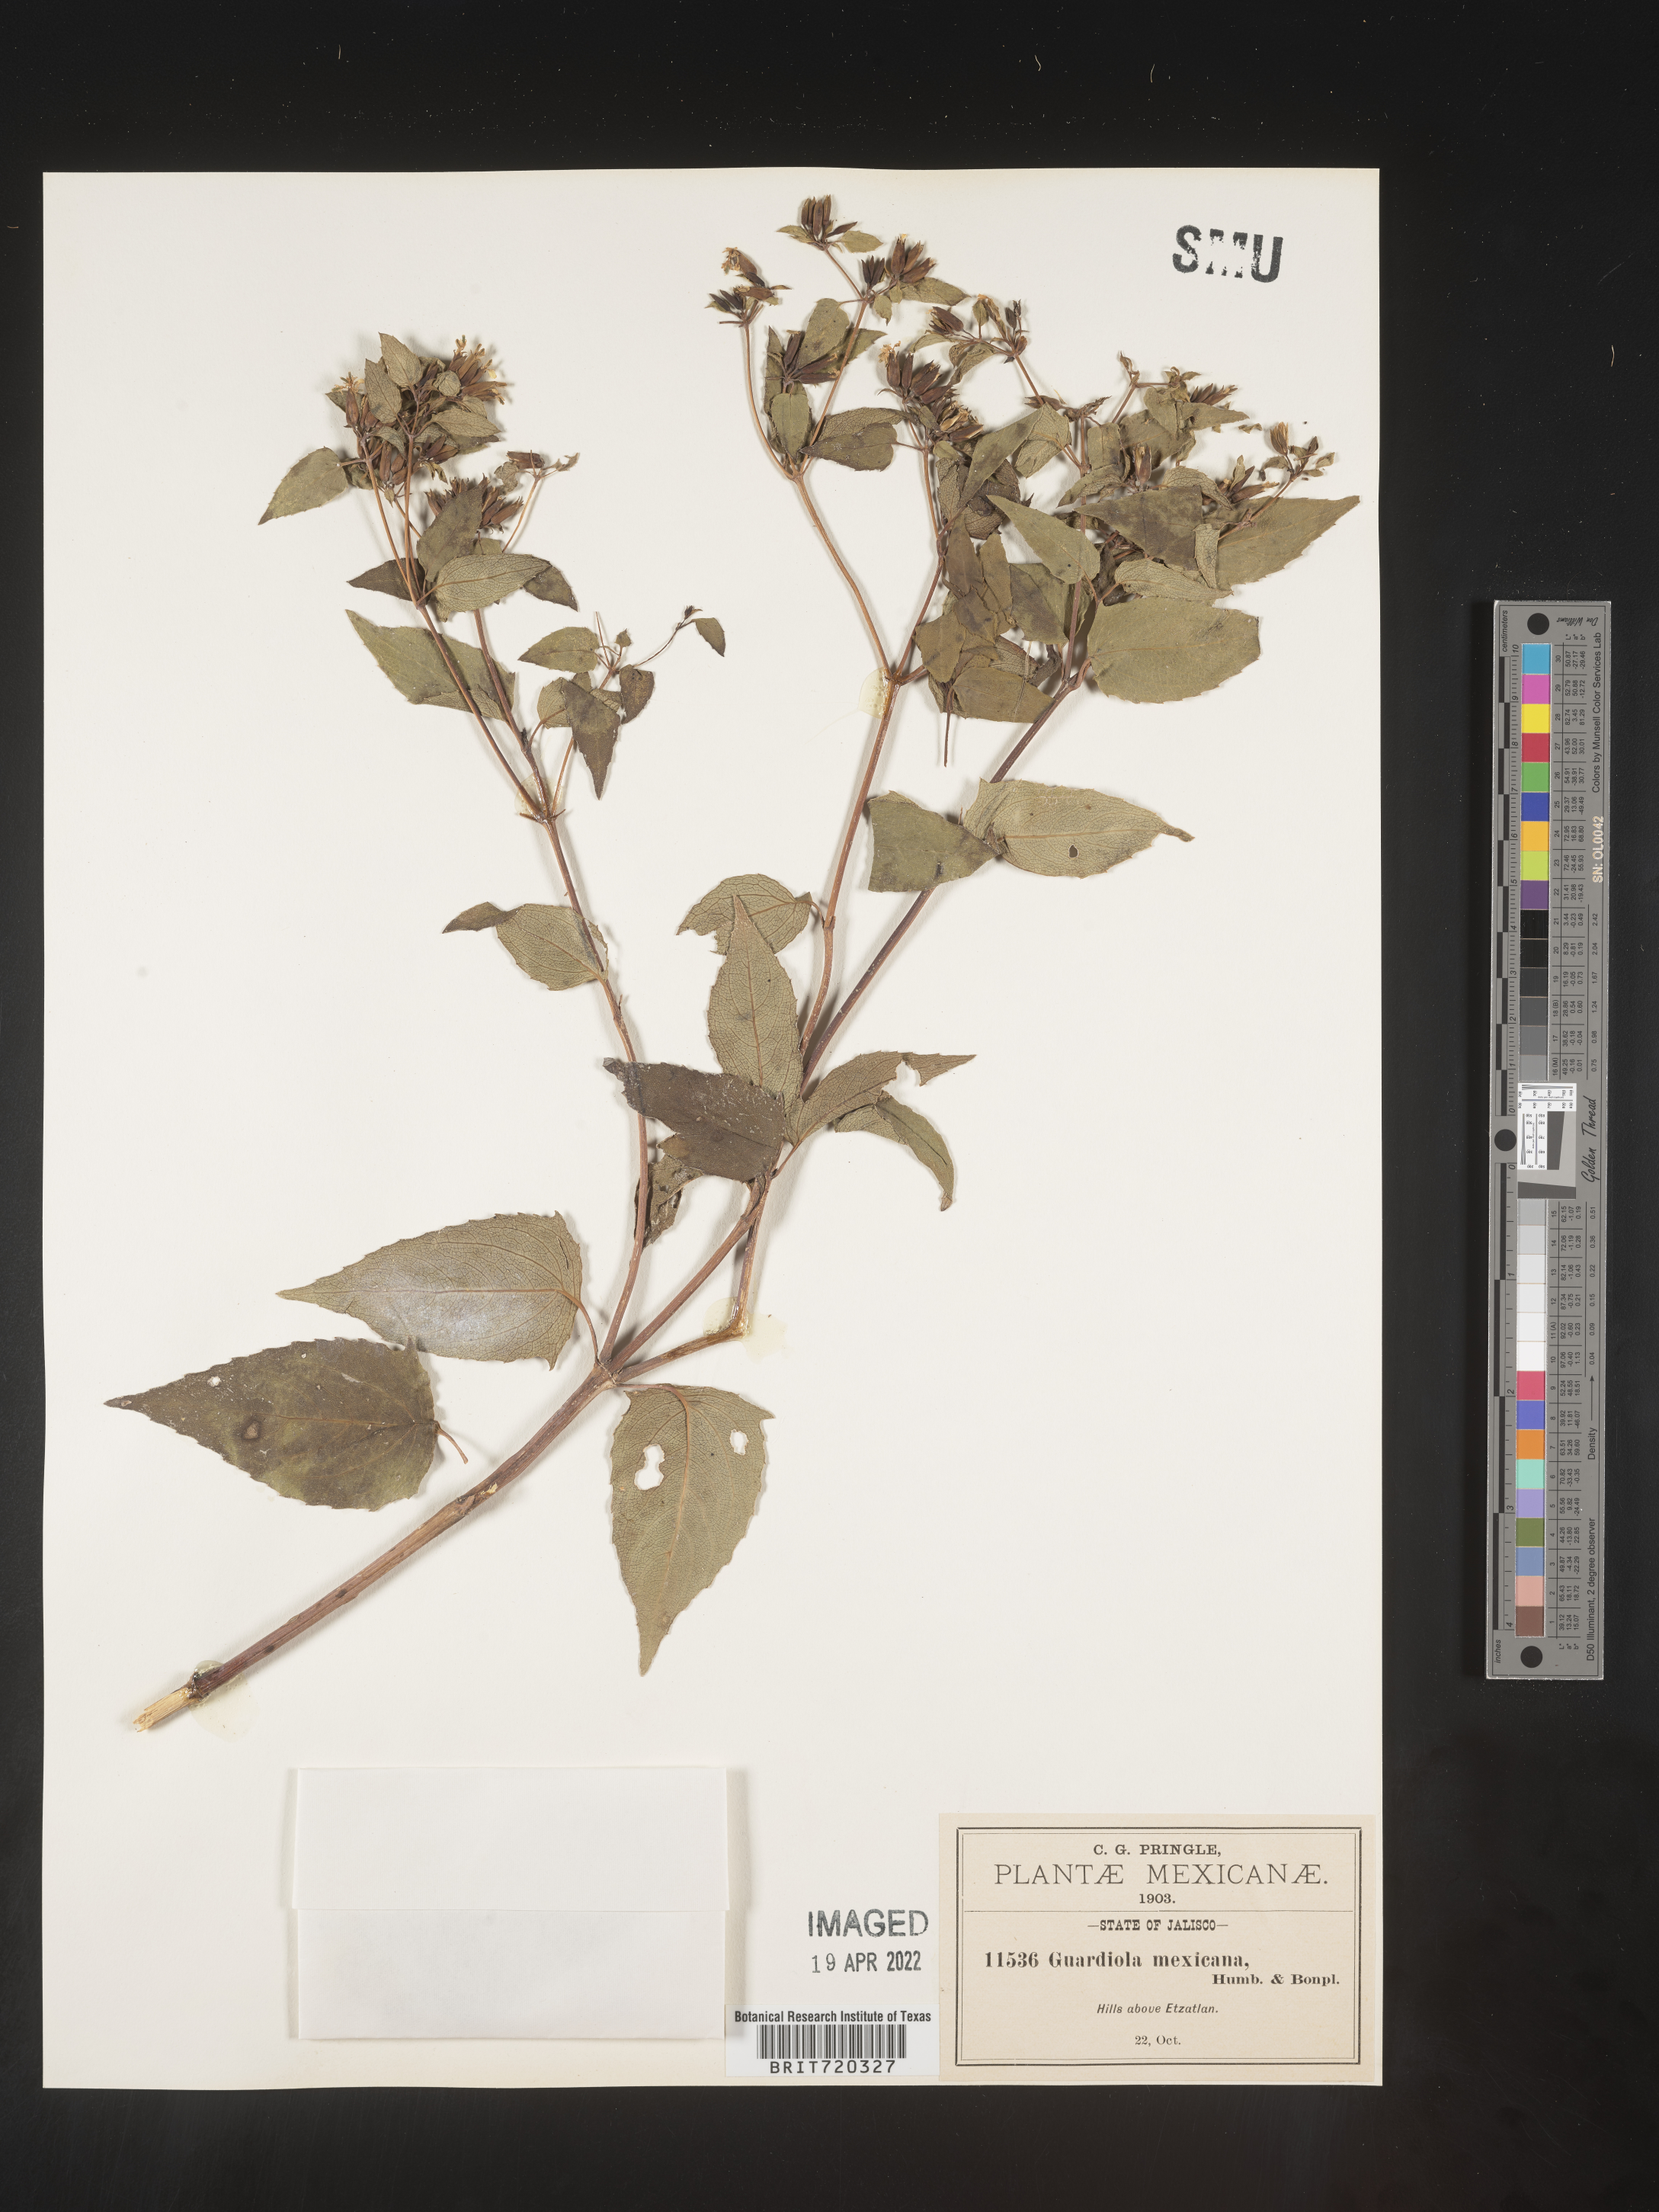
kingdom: Plantae
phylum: Tracheophyta
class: Magnoliopsida
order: Asterales
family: Asteraceae
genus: Guardiola
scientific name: Guardiola
